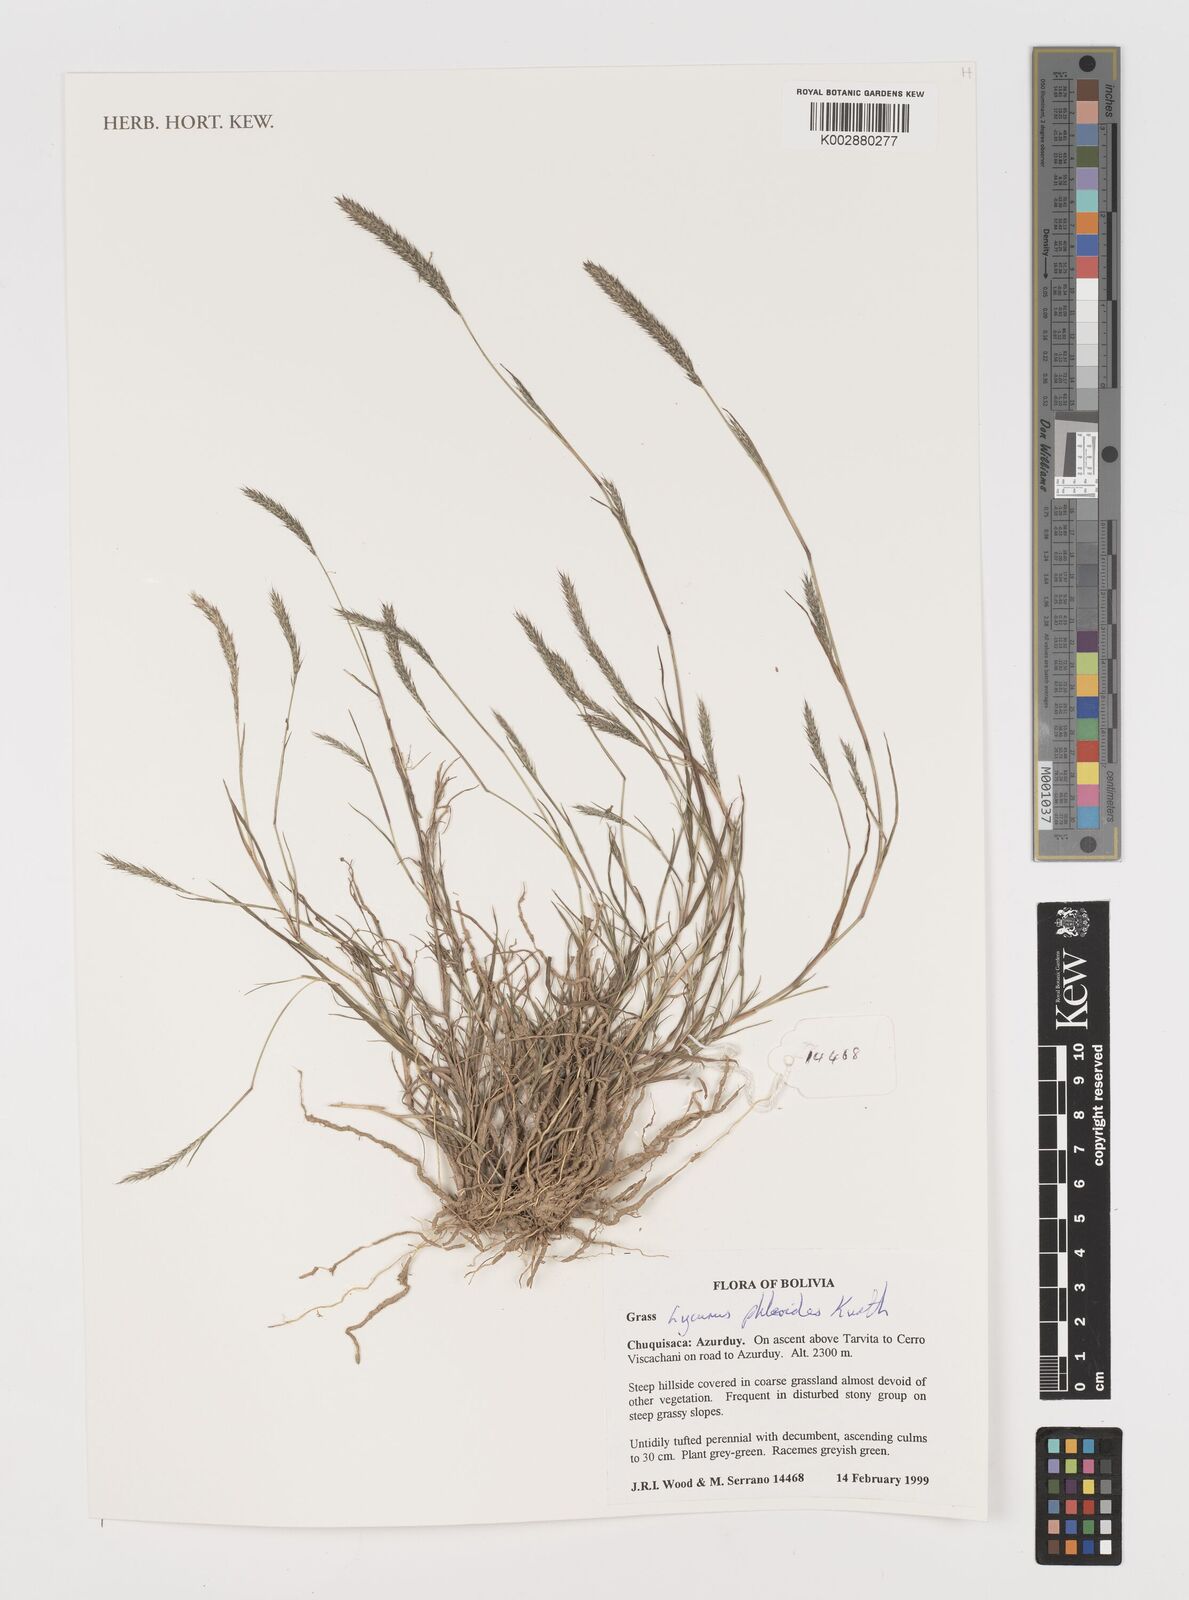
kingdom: Plantae
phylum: Tracheophyta
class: Liliopsida
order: Poales
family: Poaceae
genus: Muhlenbergia
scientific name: Muhlenbergia phleoides
